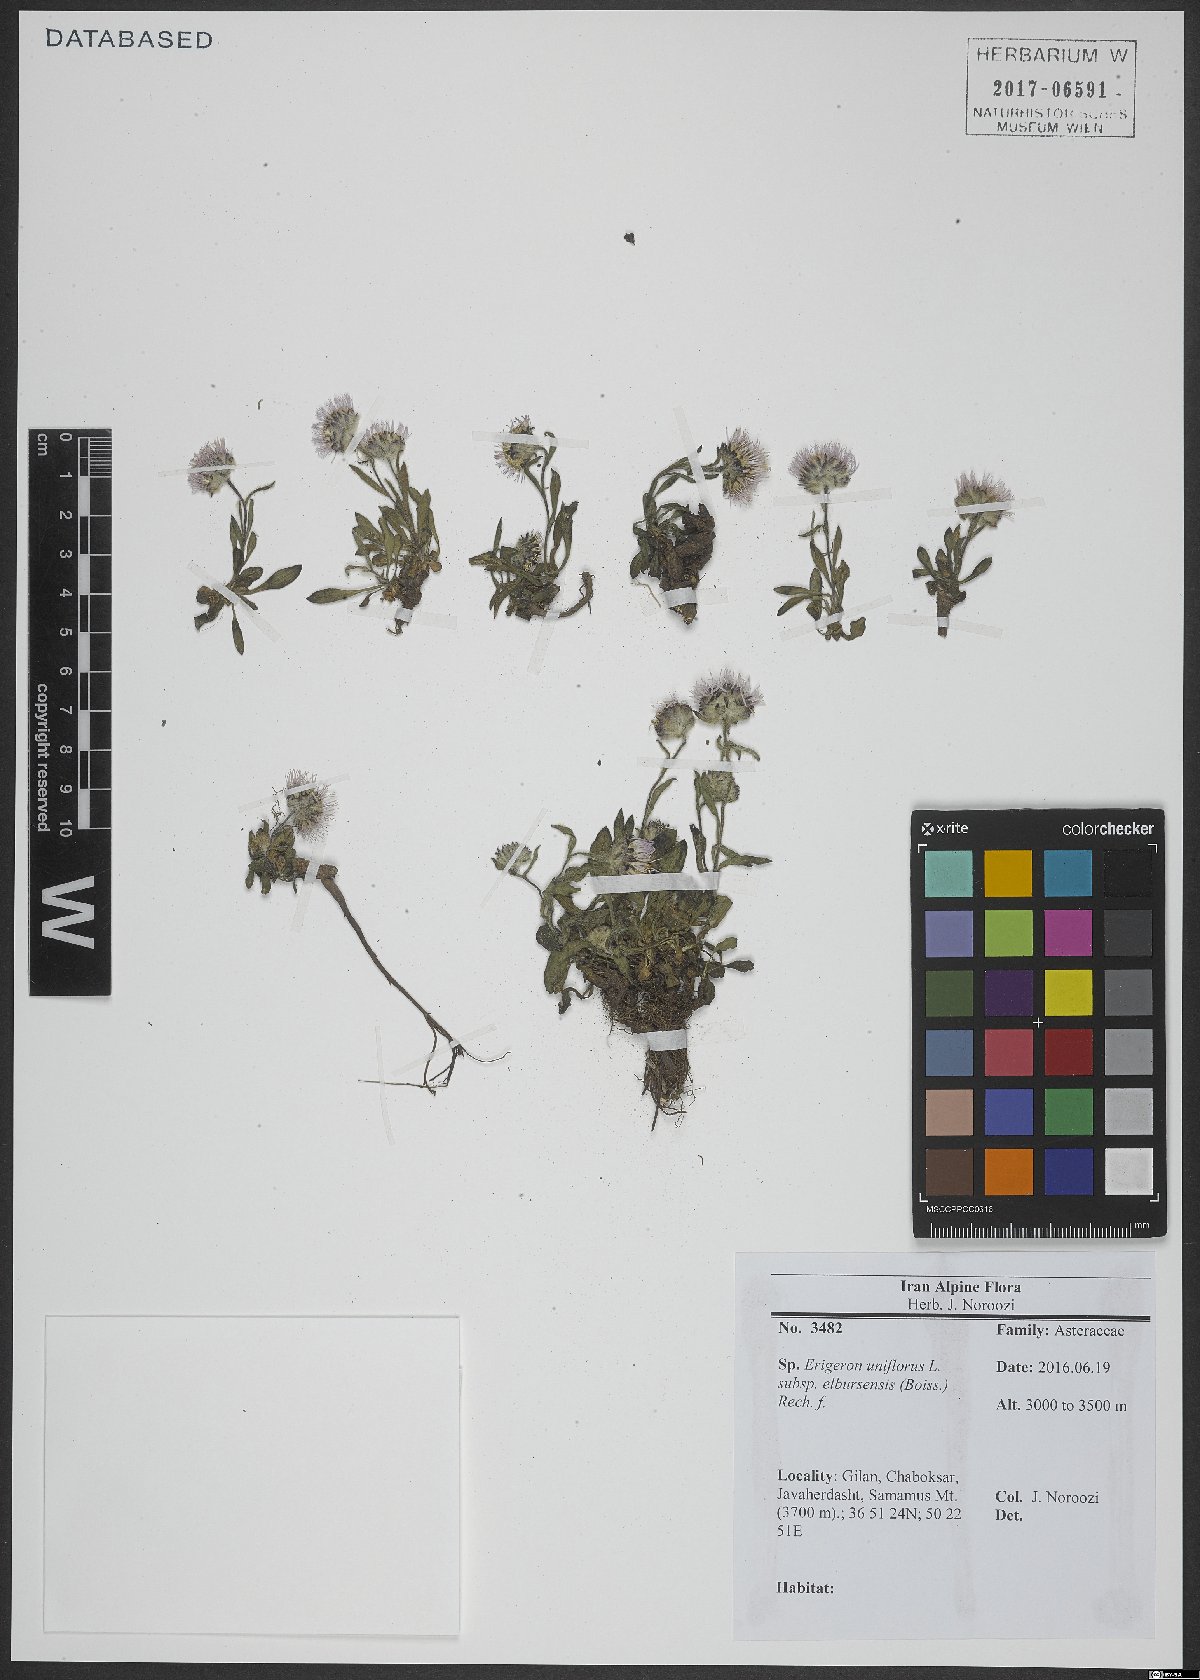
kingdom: Plantae
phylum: Tracheophyta
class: Magnoliopsida
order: Asterales
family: Asteraceae
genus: Erigeron
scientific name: Erigeron elborsensis
